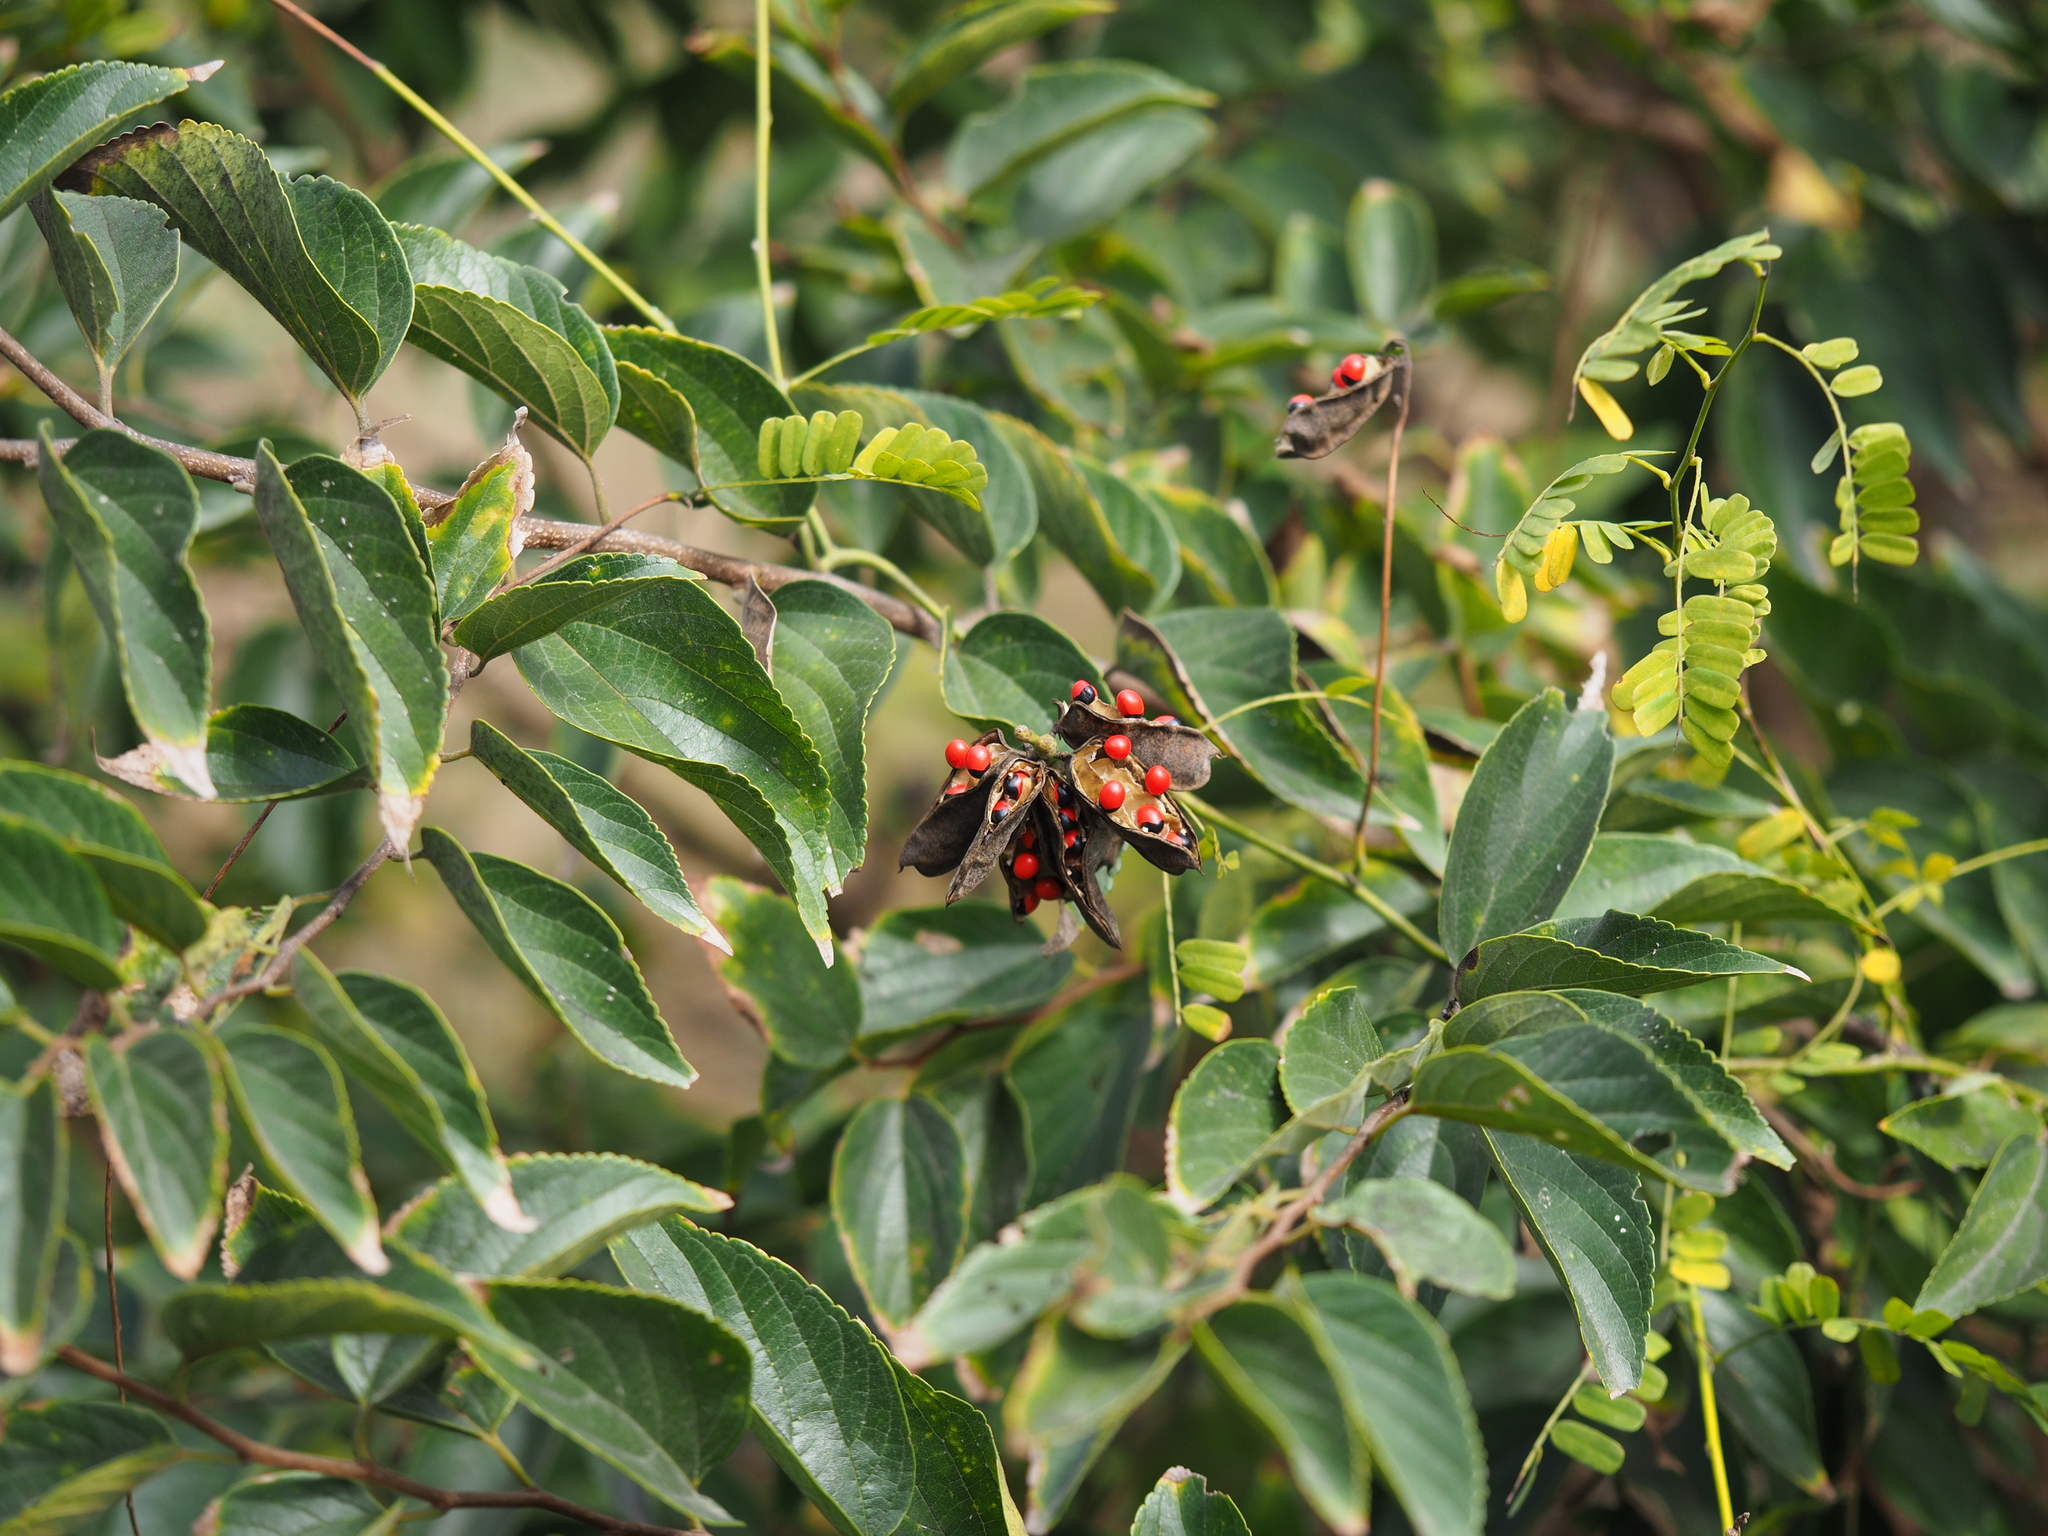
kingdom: Plantae
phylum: Tracheophyta
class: Magnoliopsida
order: Fabales
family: Fabaceae
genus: Abrus
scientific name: Abrus precatorius
